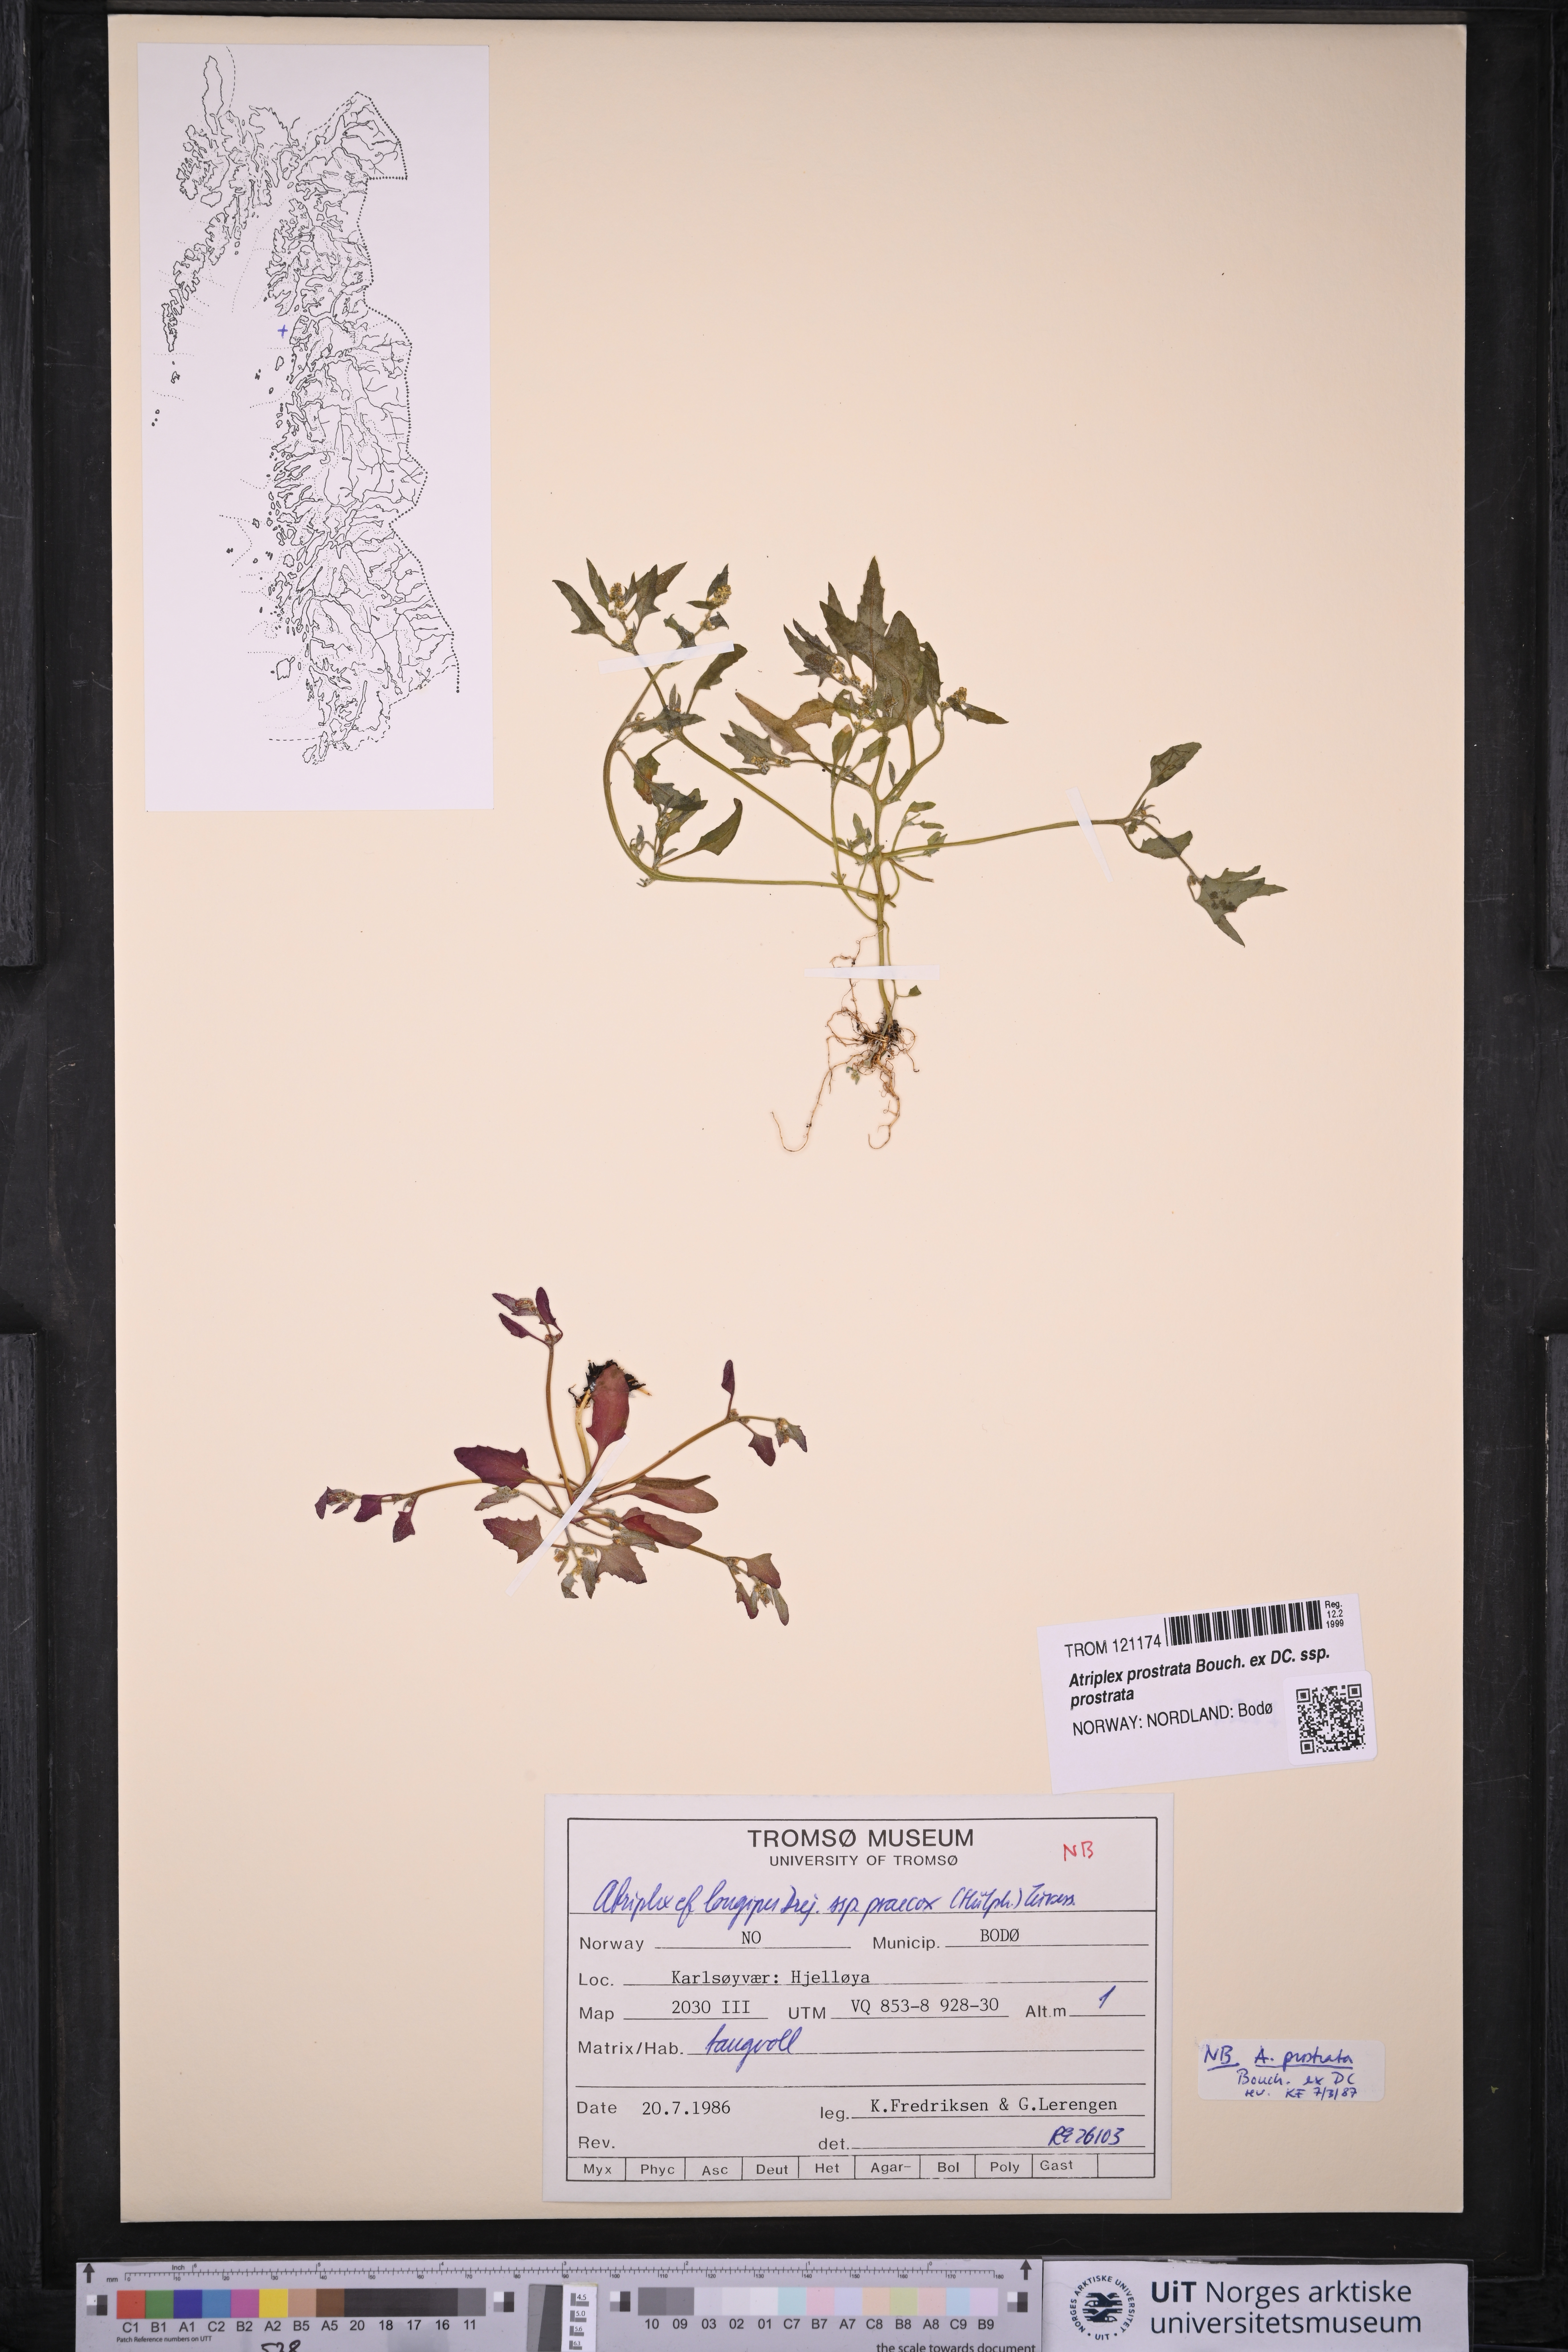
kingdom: Plantae
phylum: Tracheophyta
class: Magnoliopsida
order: Caryophyllales
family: Amaranthaceae
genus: Atriplex
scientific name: Atriplex prostrata
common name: Spear-leaved orache
